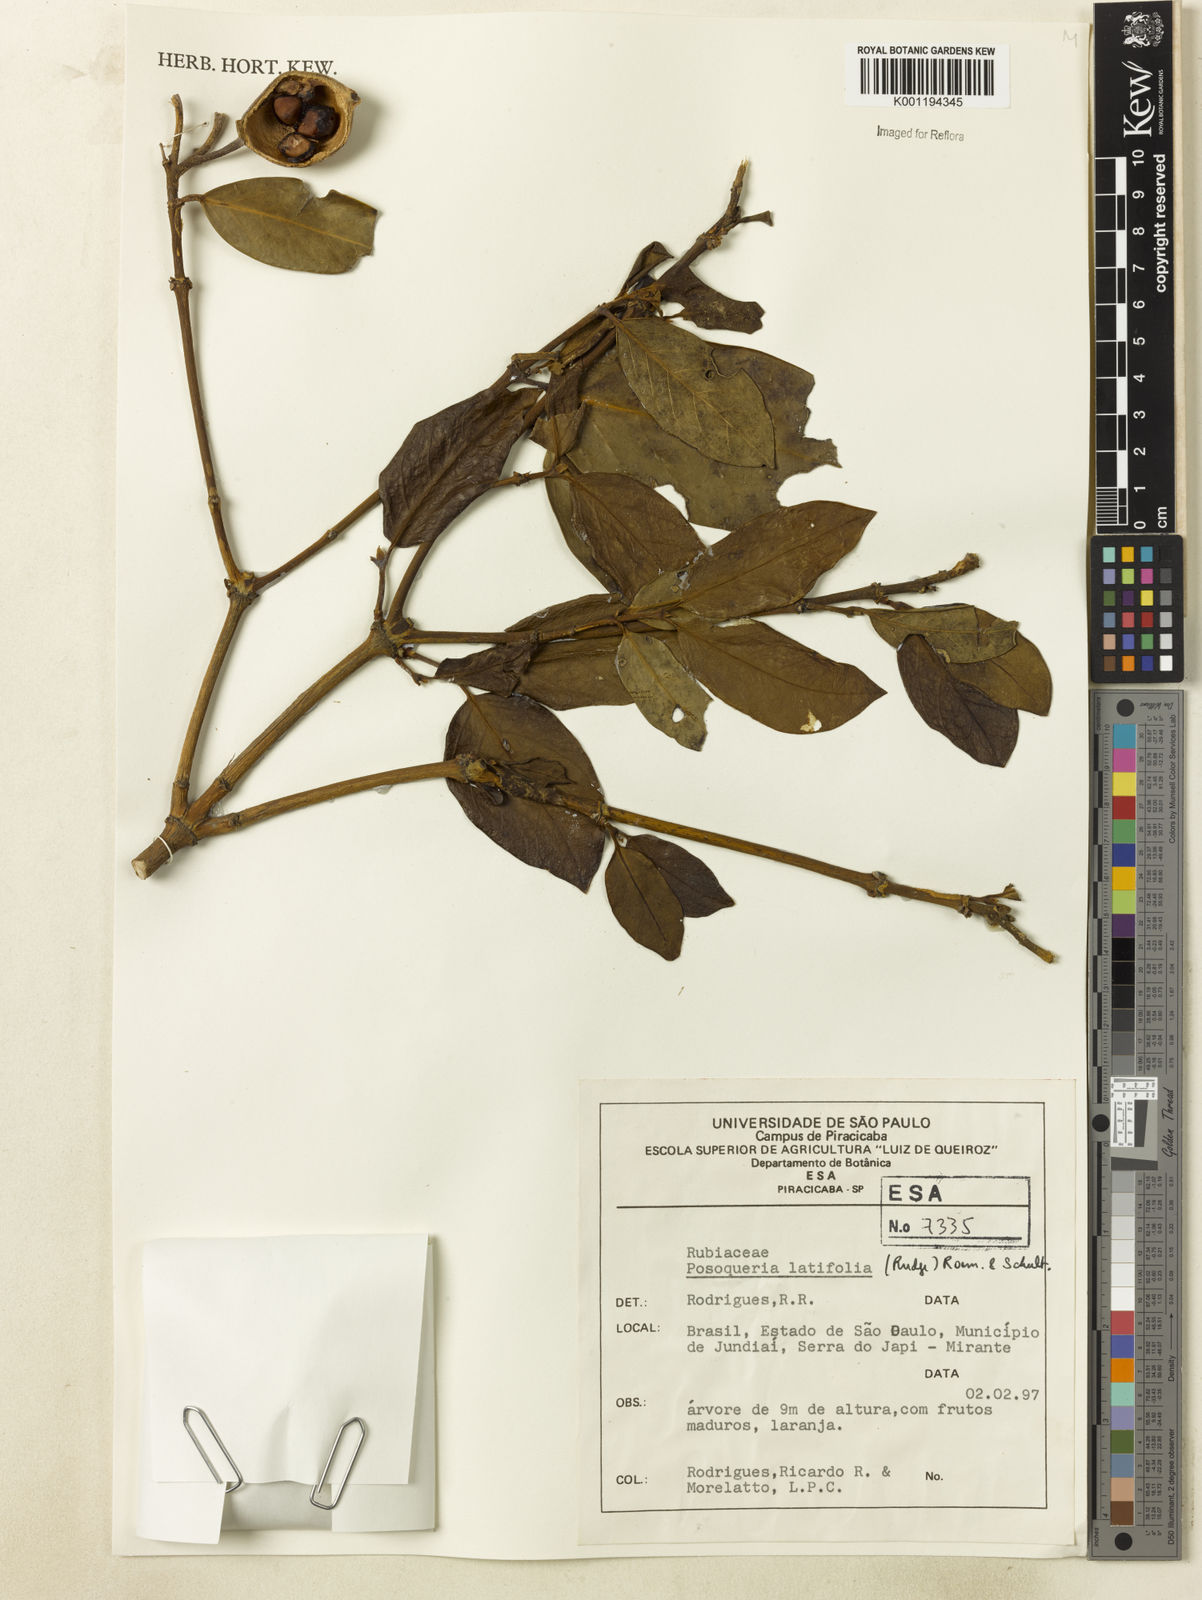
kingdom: Plantae
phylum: Tracheophyta
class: Magnoliopsida
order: Gentianales
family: Rubiaceae
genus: Posoqueria
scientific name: Posoqueria latifolia
